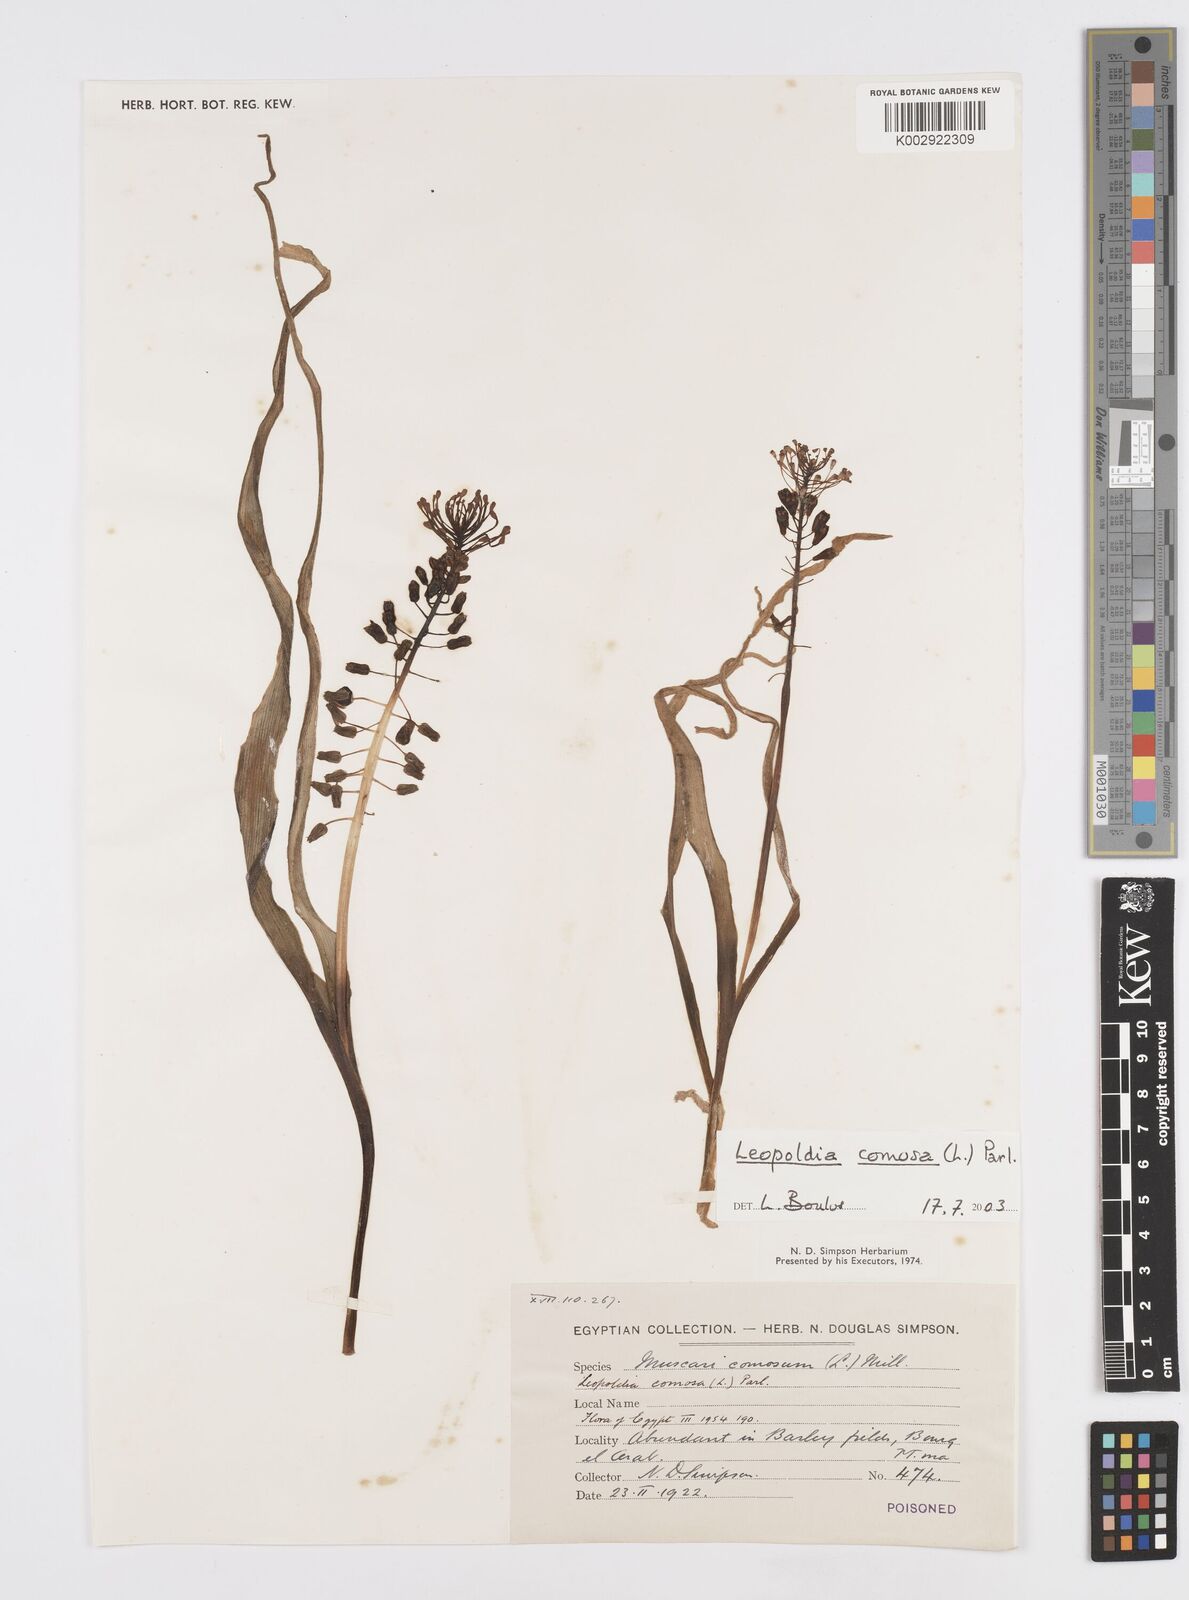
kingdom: Plantae
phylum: Tracheophyta
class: Liliopsida
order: Asparagales
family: Asparagaceae
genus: Muscari
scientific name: Muscari comosum
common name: Tassel hyacinth
